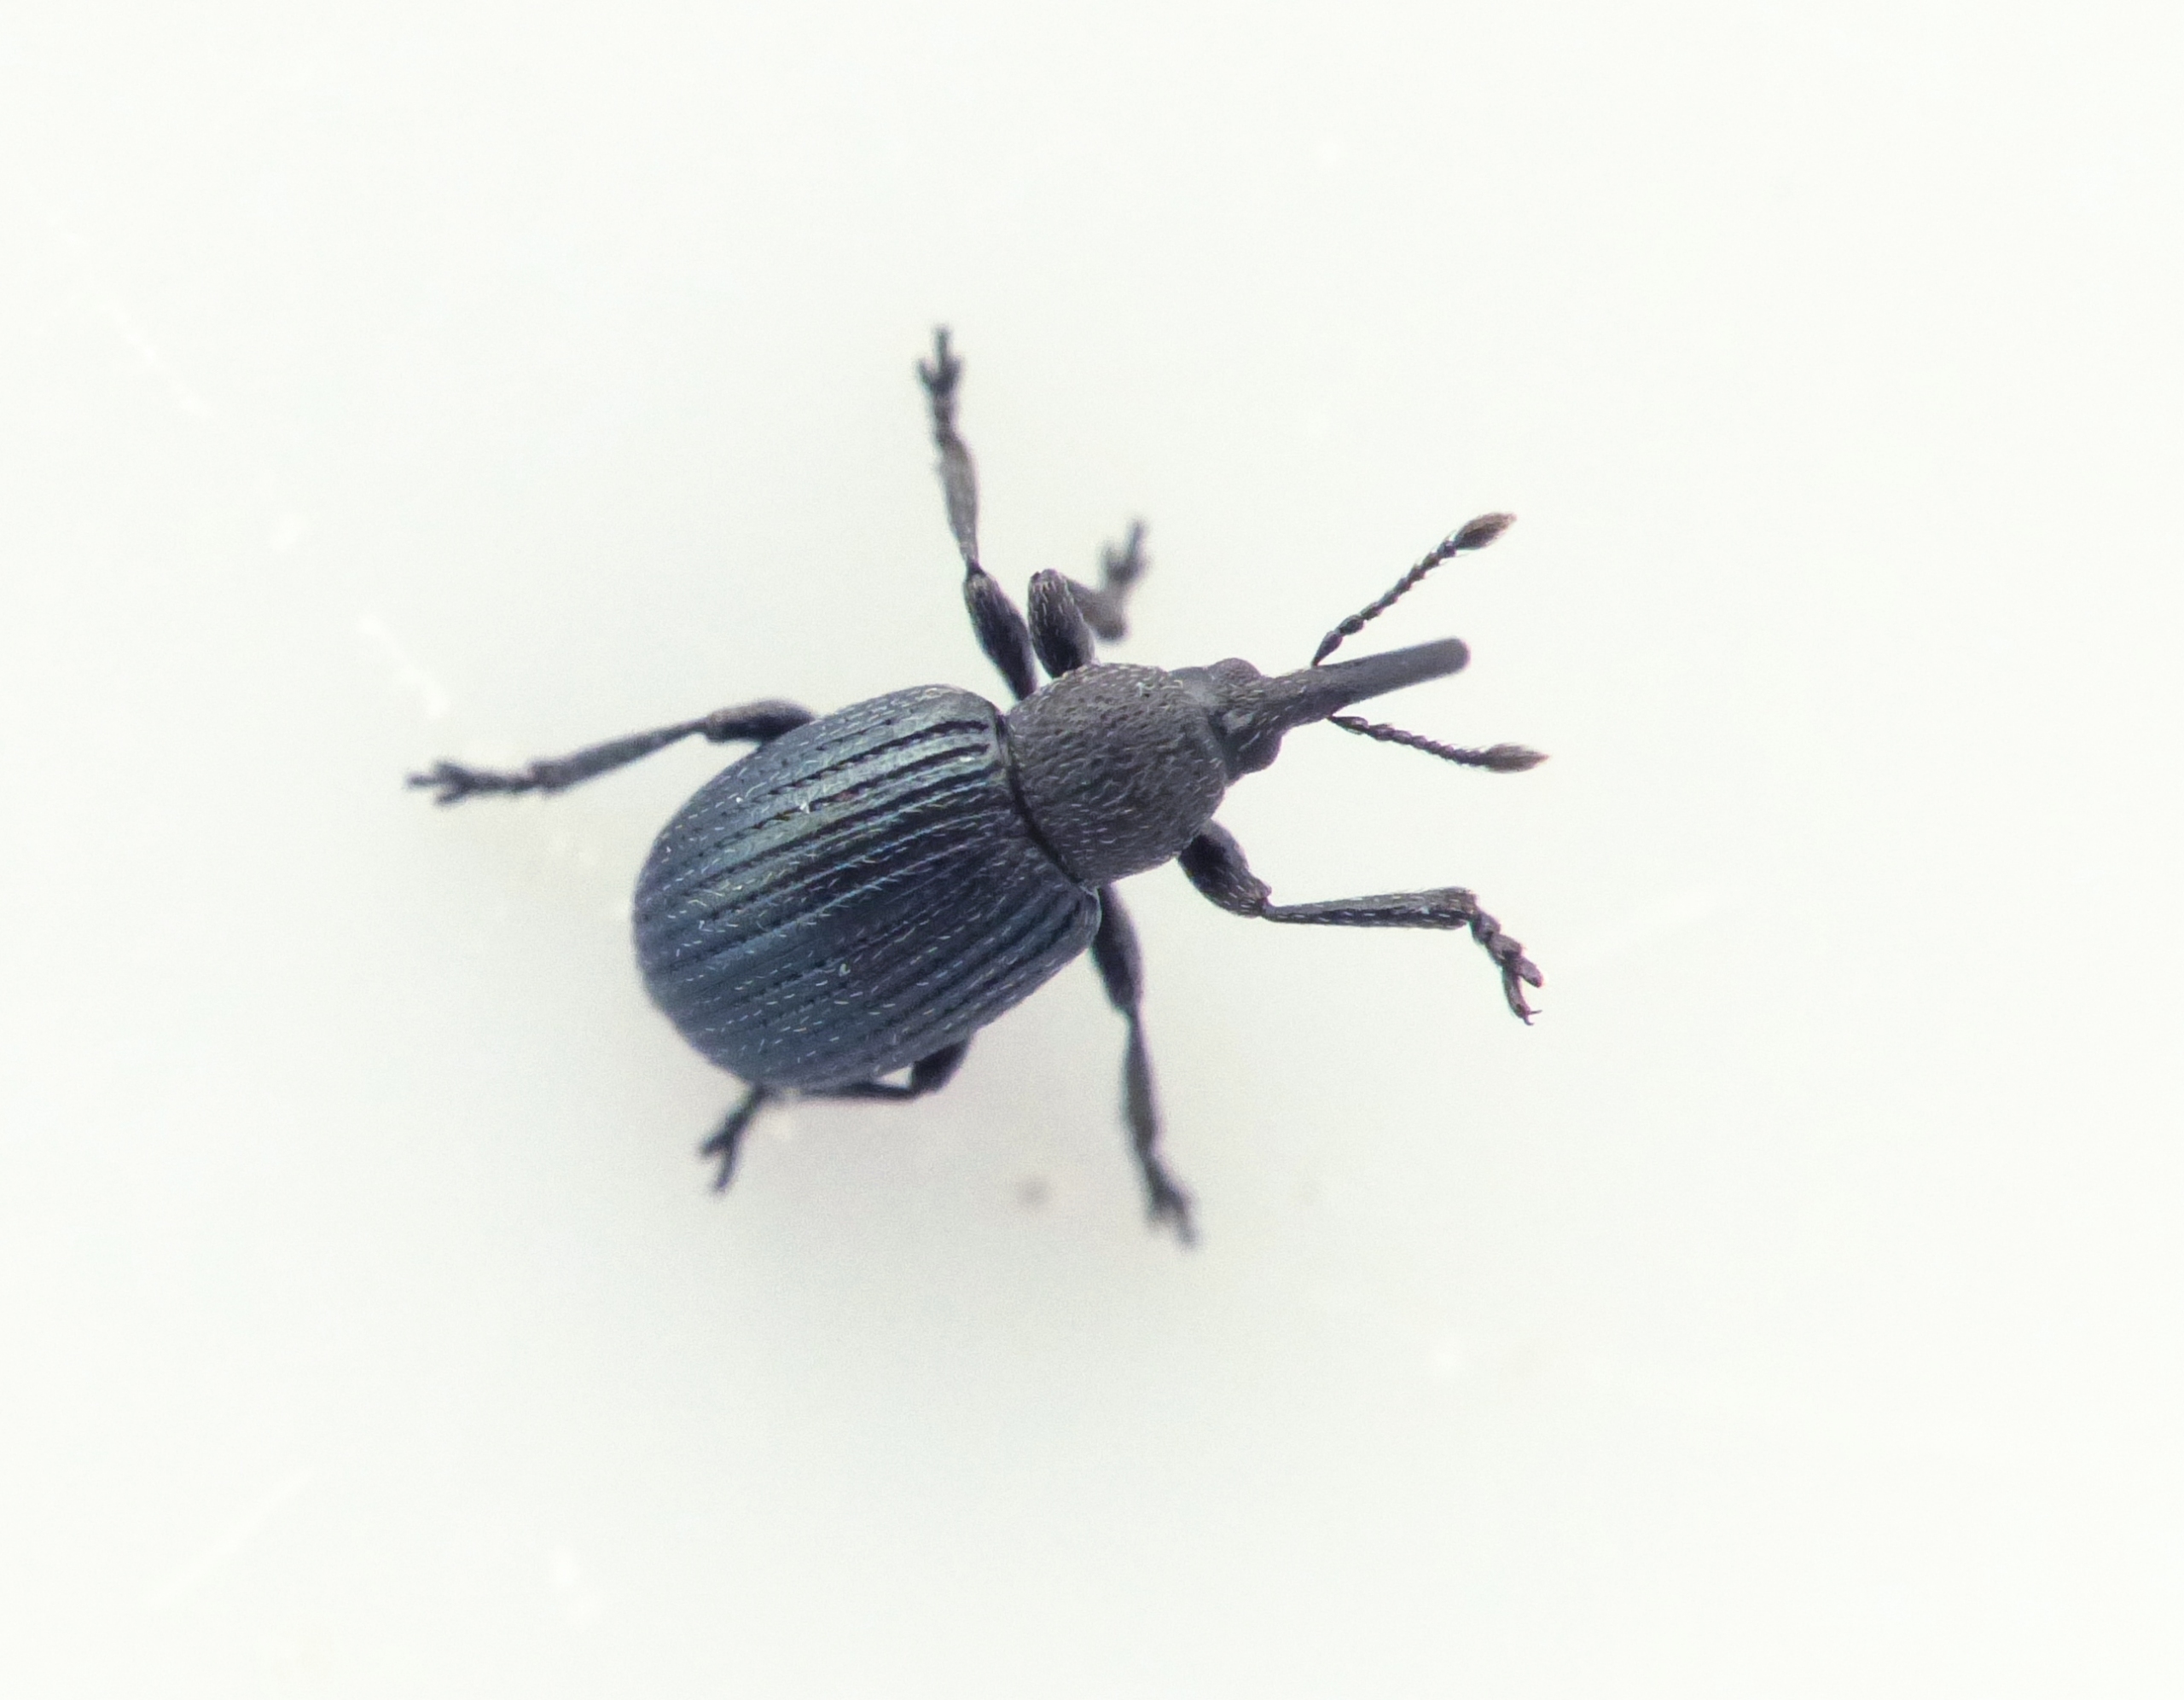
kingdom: Animalia
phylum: Arthropoda
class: Insecta
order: Coleoptera
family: Brentidae
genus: Omphalapion
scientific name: Omphalapion hookerorum
